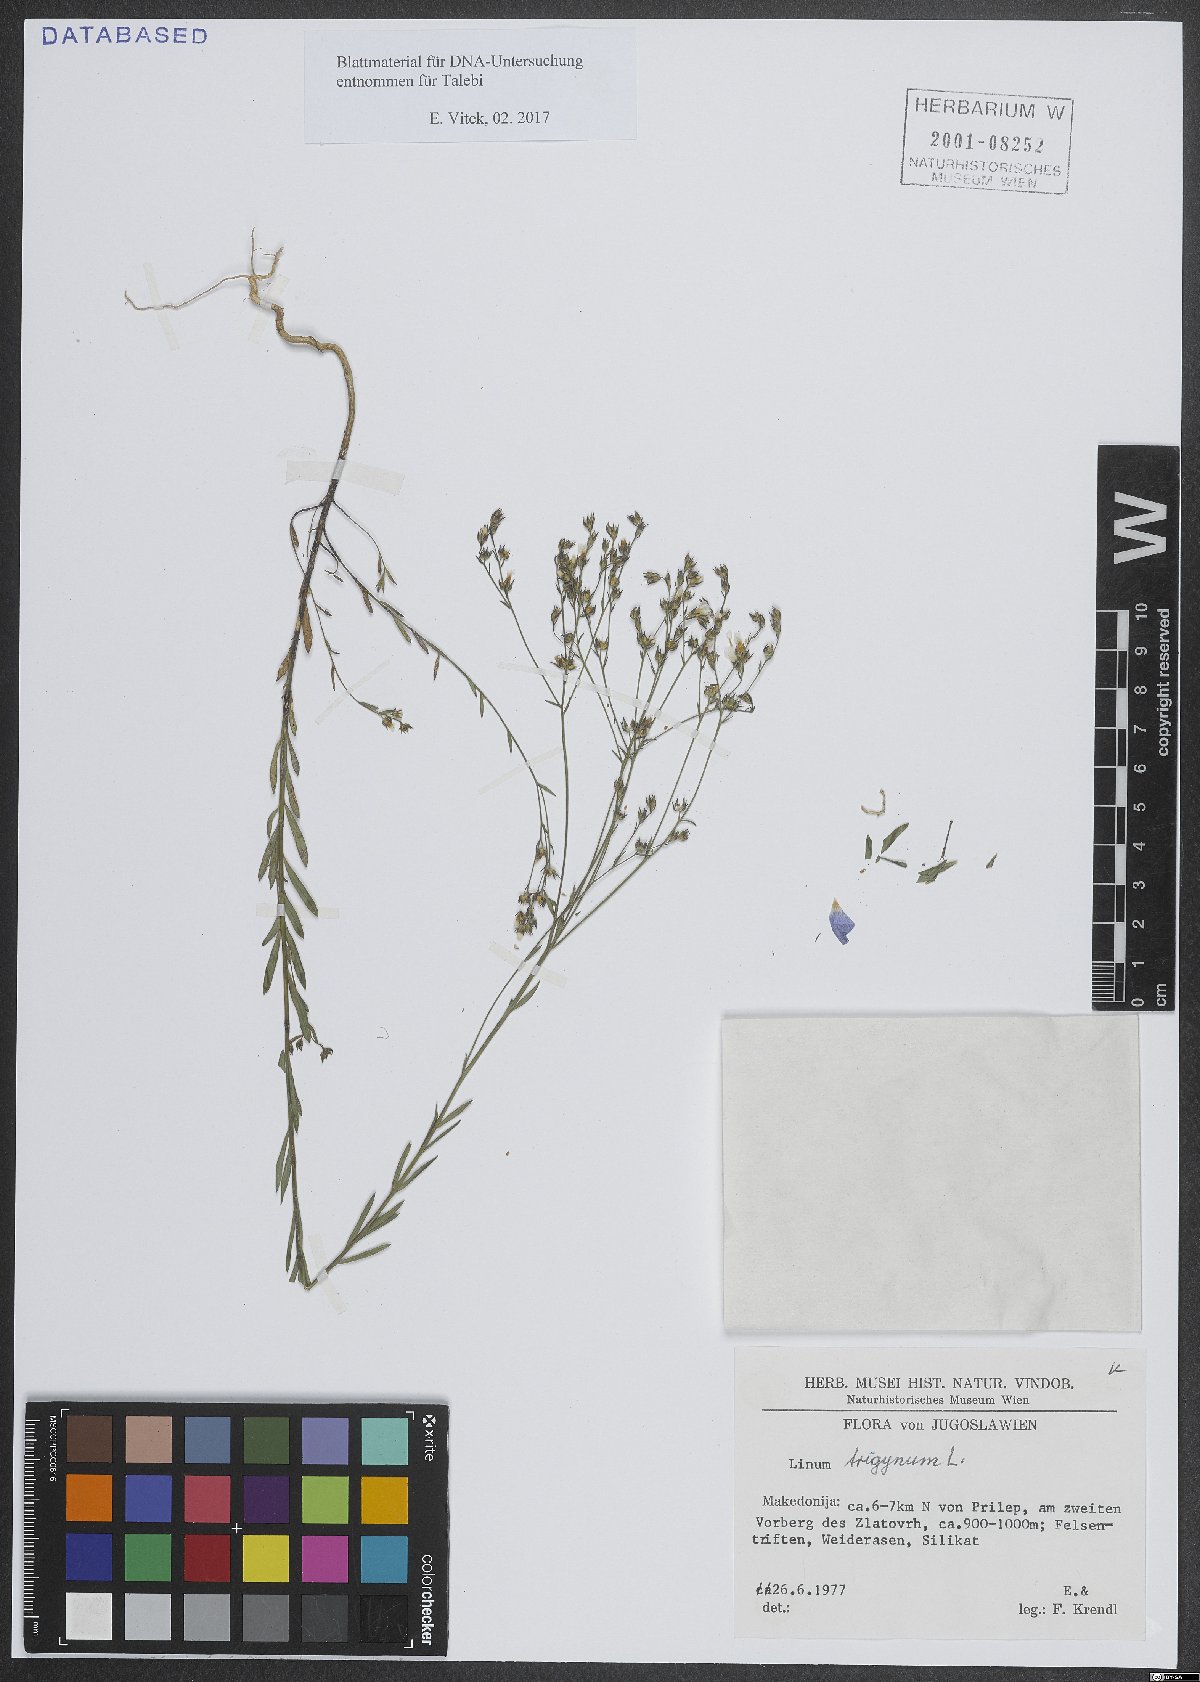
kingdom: Plantae
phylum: Tracheophyta
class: Magnoliopsida
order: Malpighiales
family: Linaceae
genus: Linum
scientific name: Linum trigynum
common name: French flax
